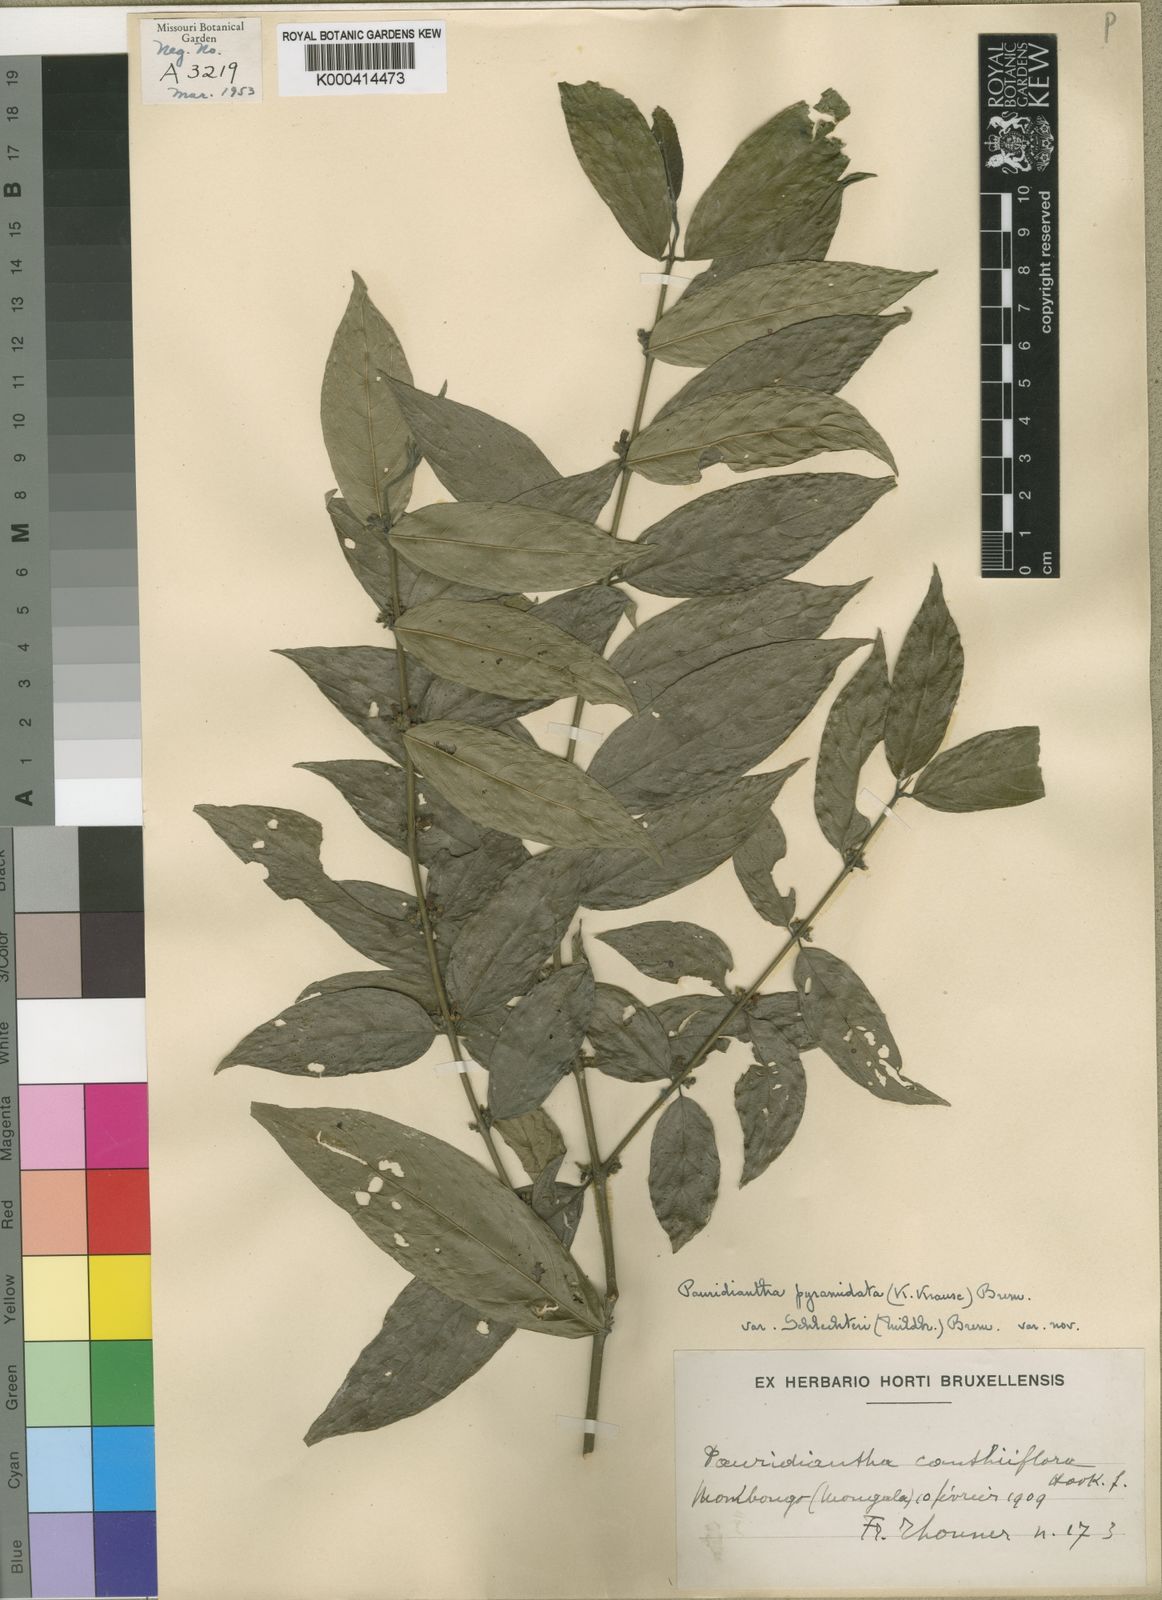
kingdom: Plantae
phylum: Tracheophyta
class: Magnoliopsida
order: Gentianales
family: Rubiaceae
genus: Pauridiantha
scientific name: Pauridiantha pyramidata
